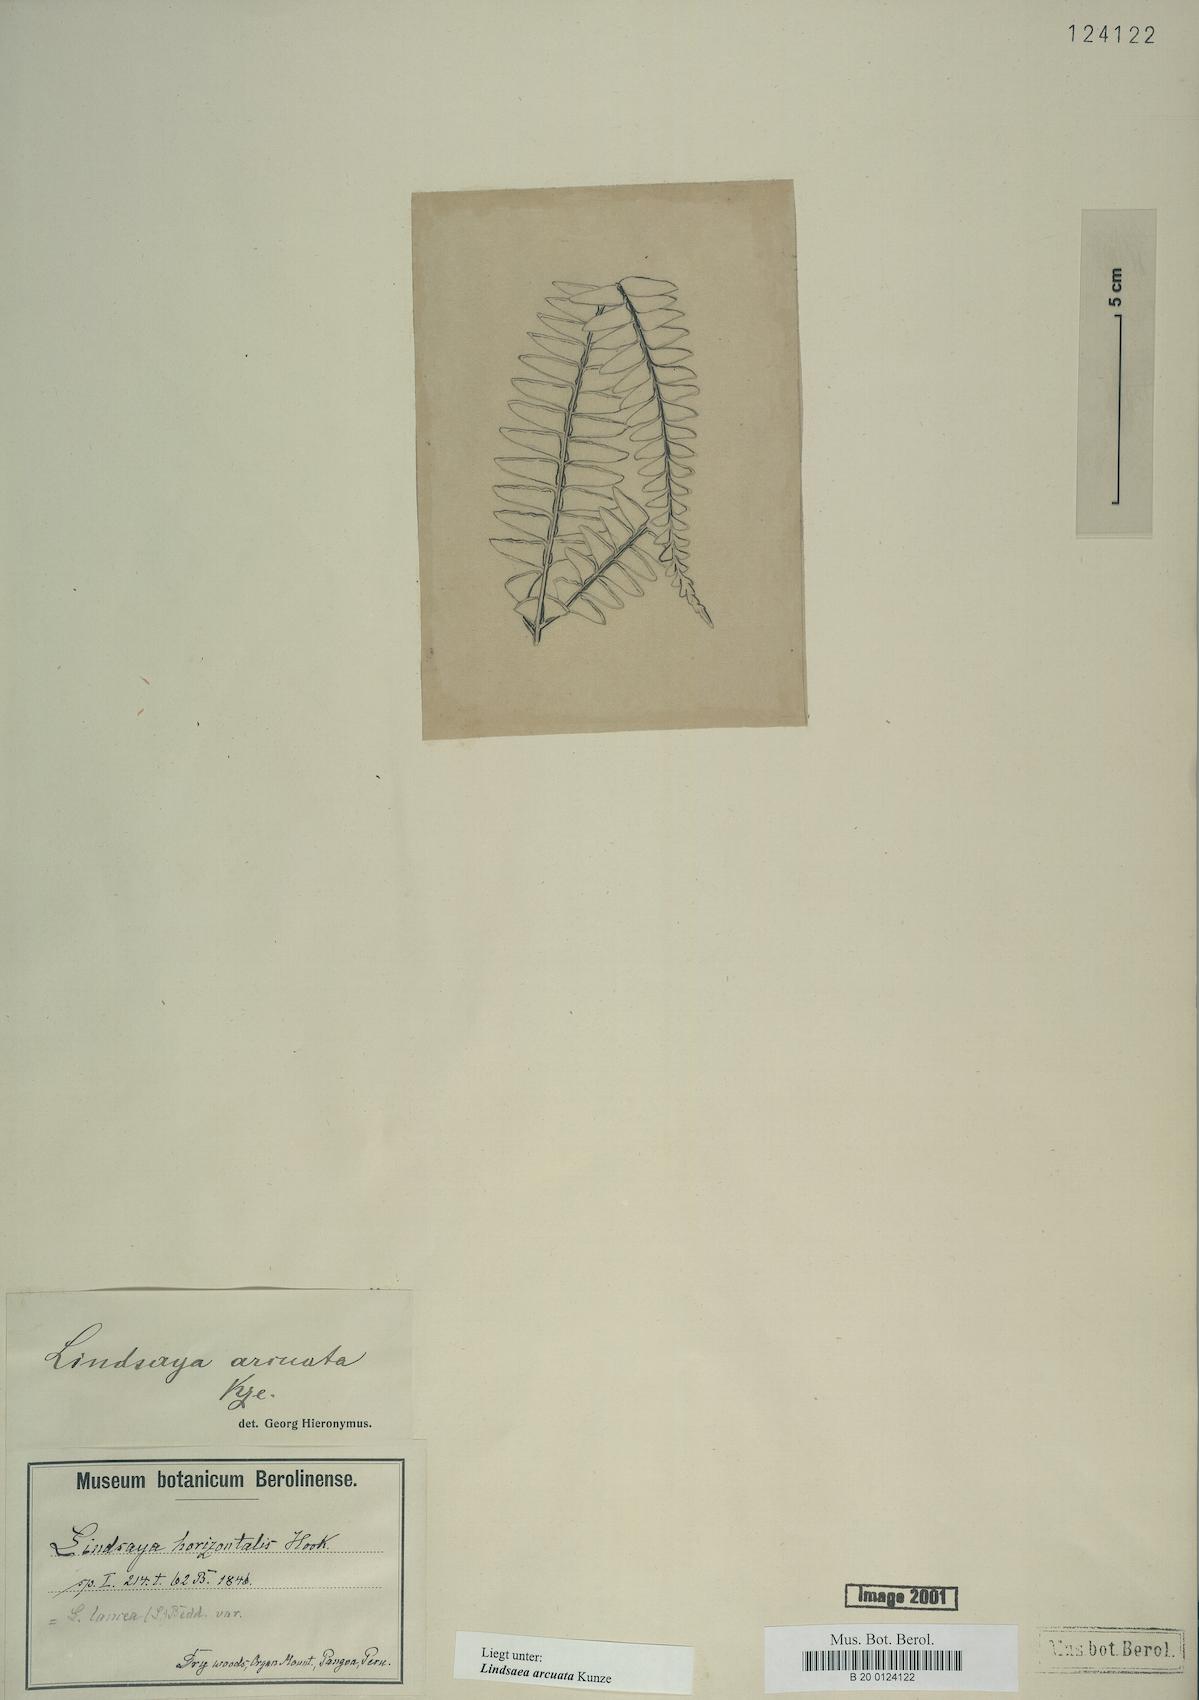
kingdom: Plantae
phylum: Tracheophyta
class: Polypodiopsida
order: Polypodiales
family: Lindsaeaceae
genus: Lindsaea
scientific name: Lindsaea arcuata
